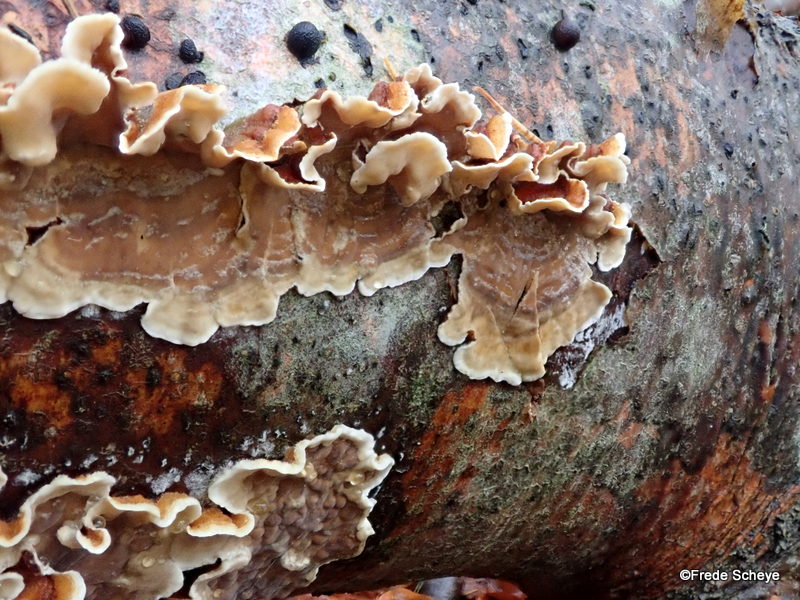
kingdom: Fungi
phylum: Basidiomycota
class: Agaricomycetes
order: Russulales
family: Stereaceae
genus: Stereum
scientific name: Stereum hirsutum
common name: håret lædersvamp
